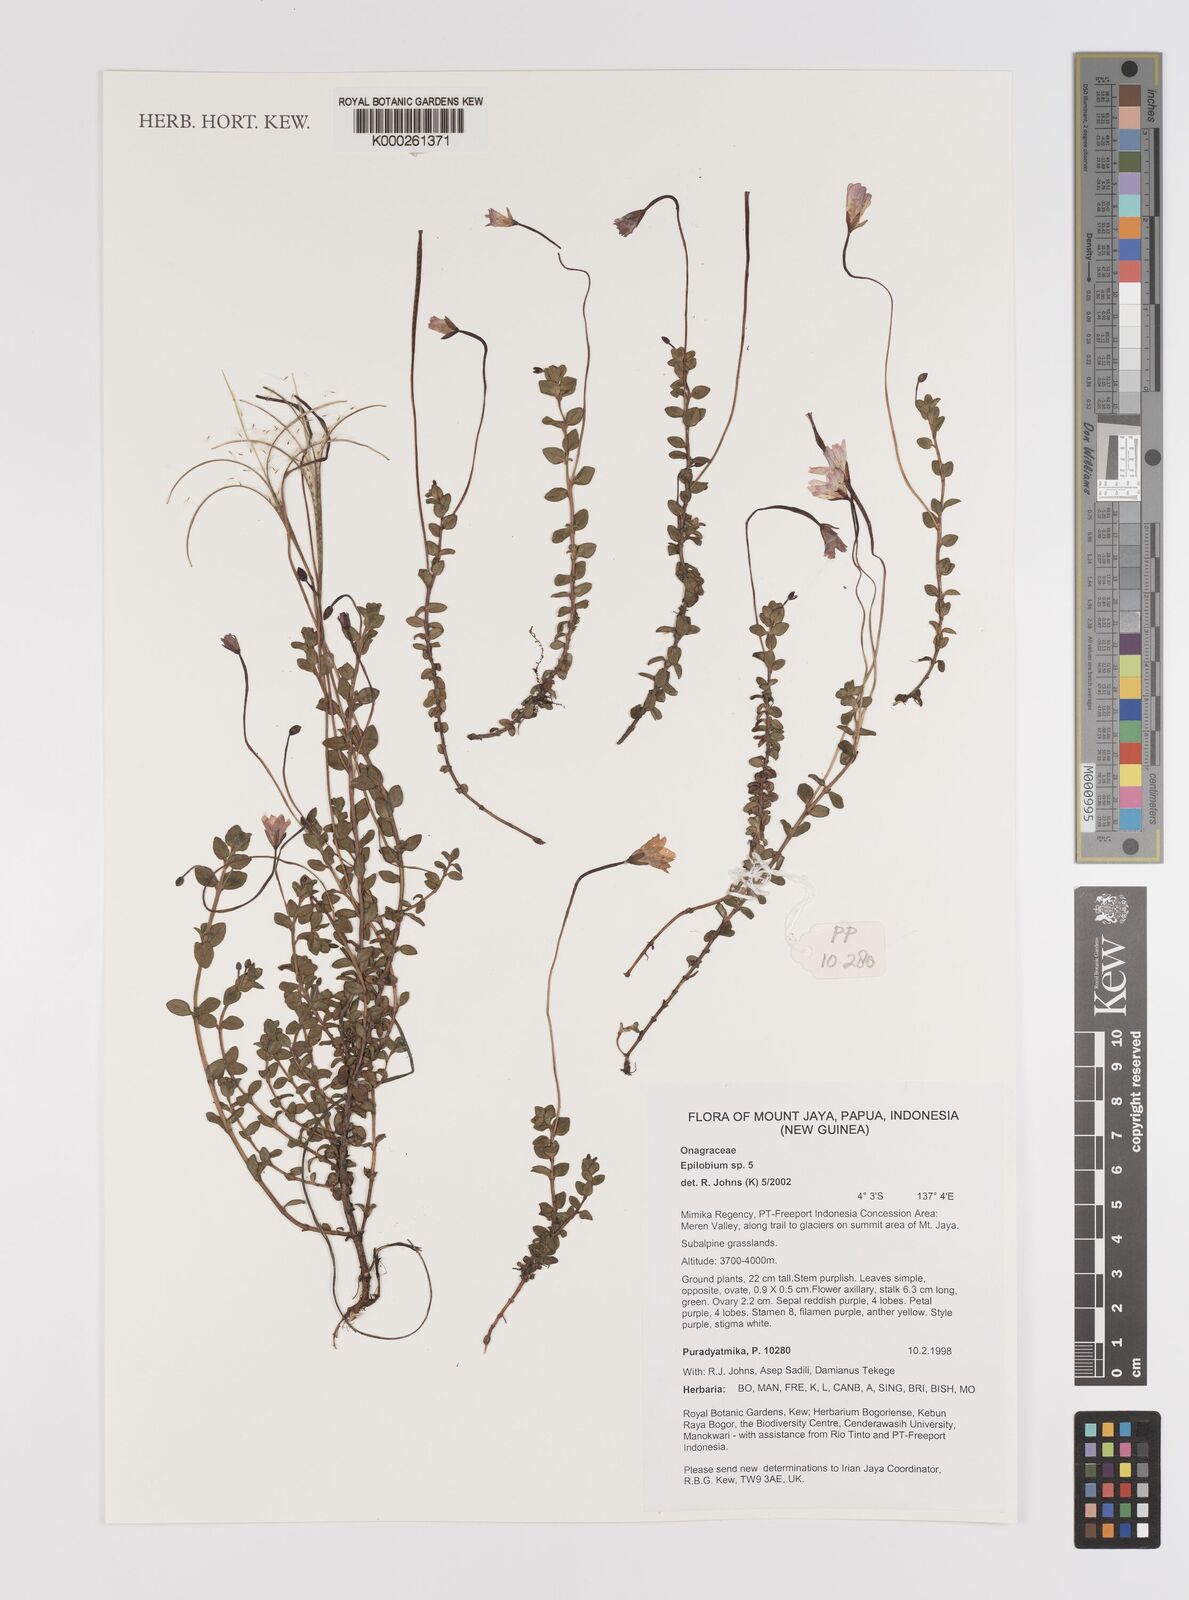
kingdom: Plantae
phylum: Tracheophyta
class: Magnoliopsida
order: Myrtales
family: Onagraceae
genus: Epilobium
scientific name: Epilobium
